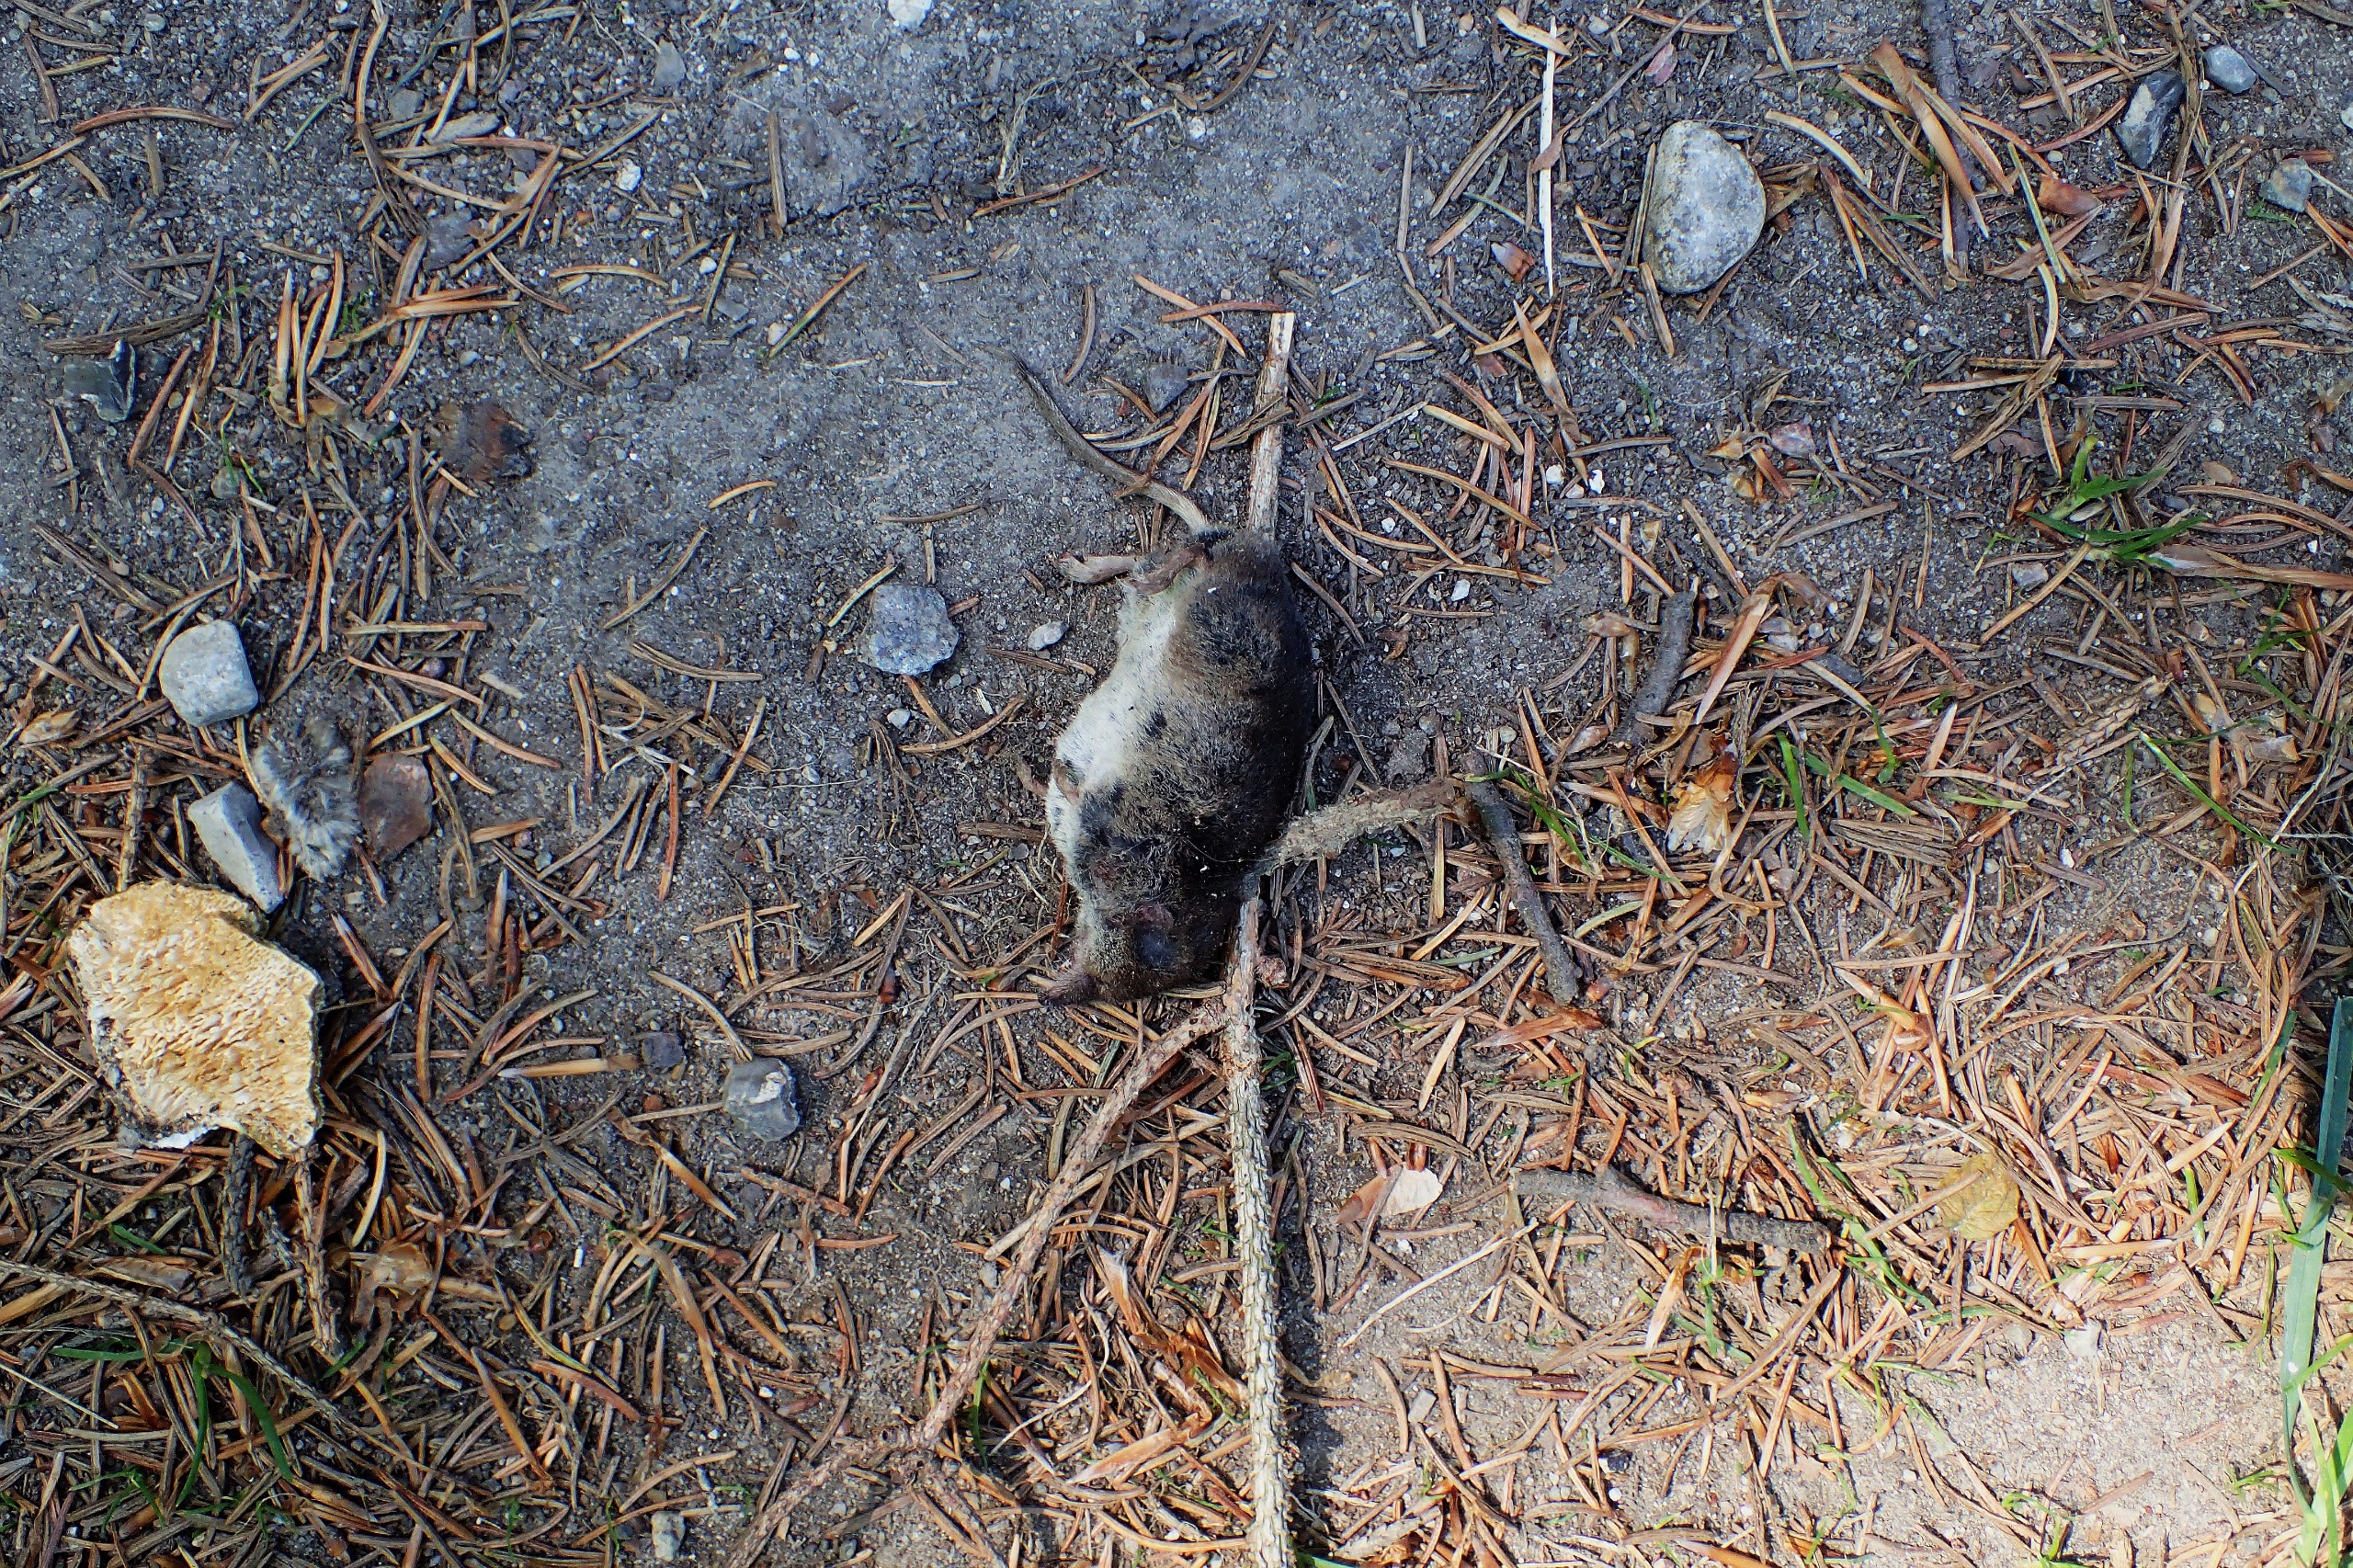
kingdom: Animalia
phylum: Chordata
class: Mammalia
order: Soricomorpha
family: Soricidae
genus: Sorex
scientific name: Sorex araneus
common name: Almindelig spidsmus
